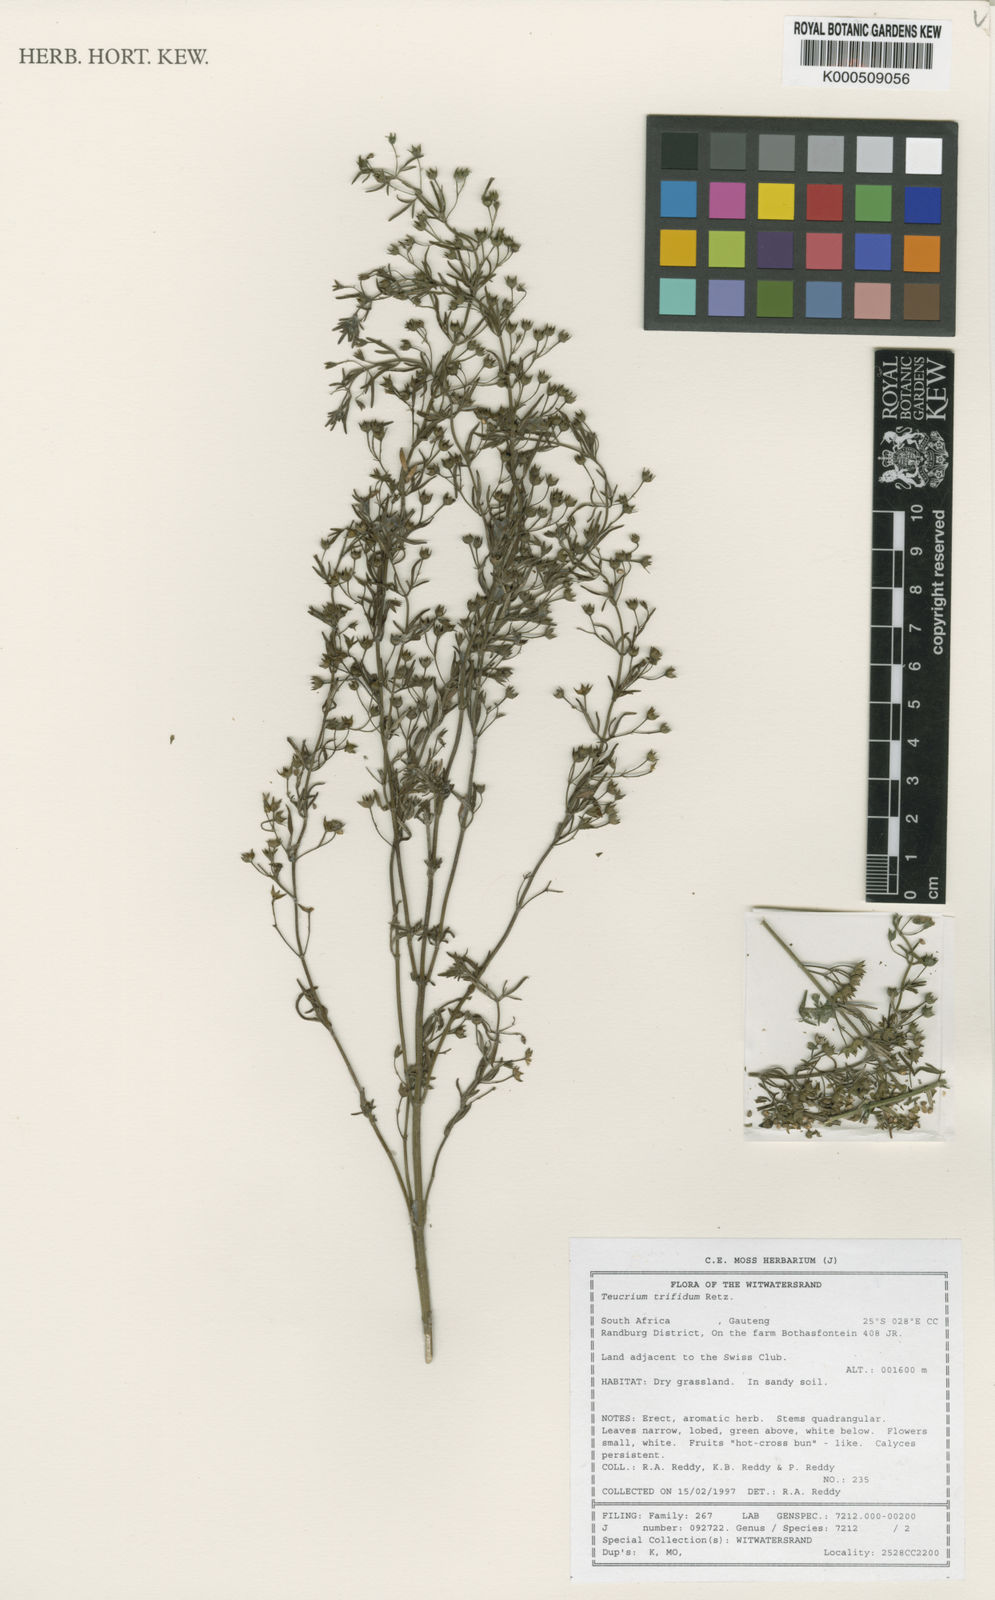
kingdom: Plantae
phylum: Tracheophyta
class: Magnoliopsida
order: Lamiales
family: Lamiaceae
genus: Teucrium
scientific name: Teucrium trifidum
